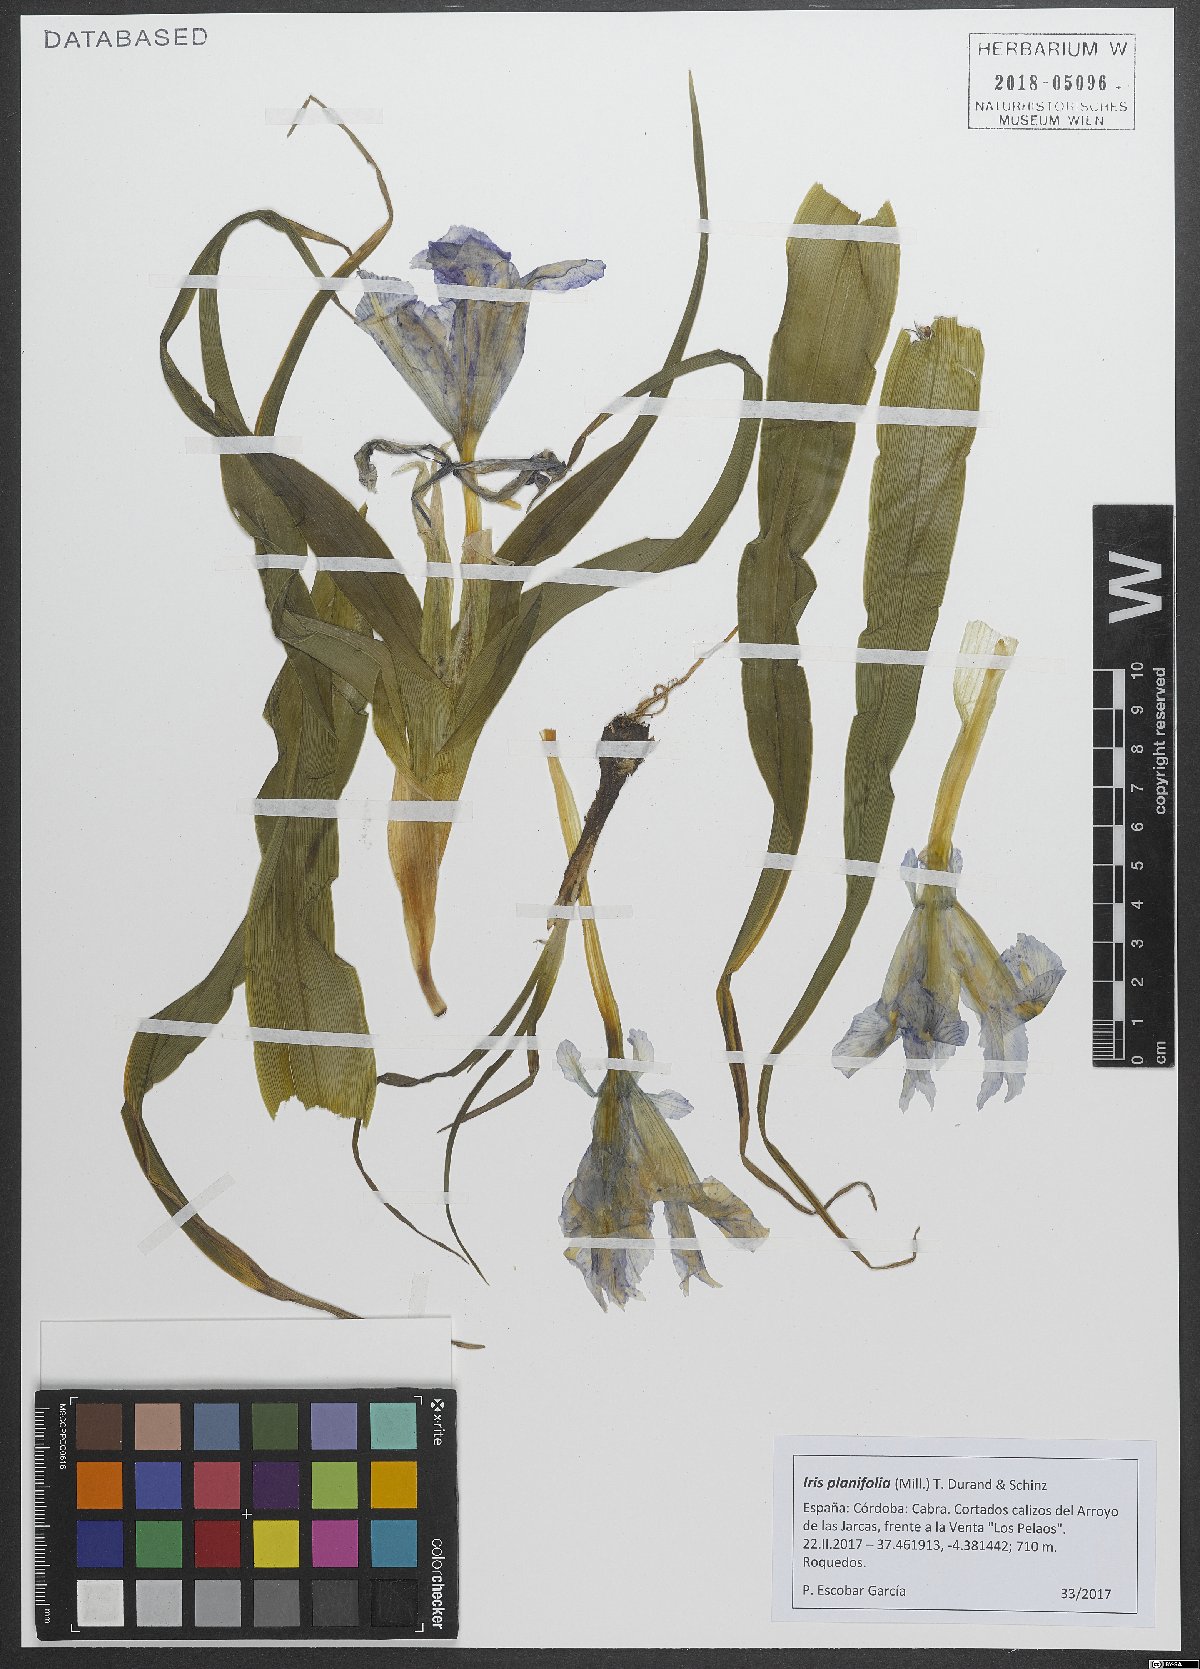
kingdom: Plantae
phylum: Tracheophyta
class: Liliopsida
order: Asparagales
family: Iridaceae
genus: Iris
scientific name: Iris planifolia
